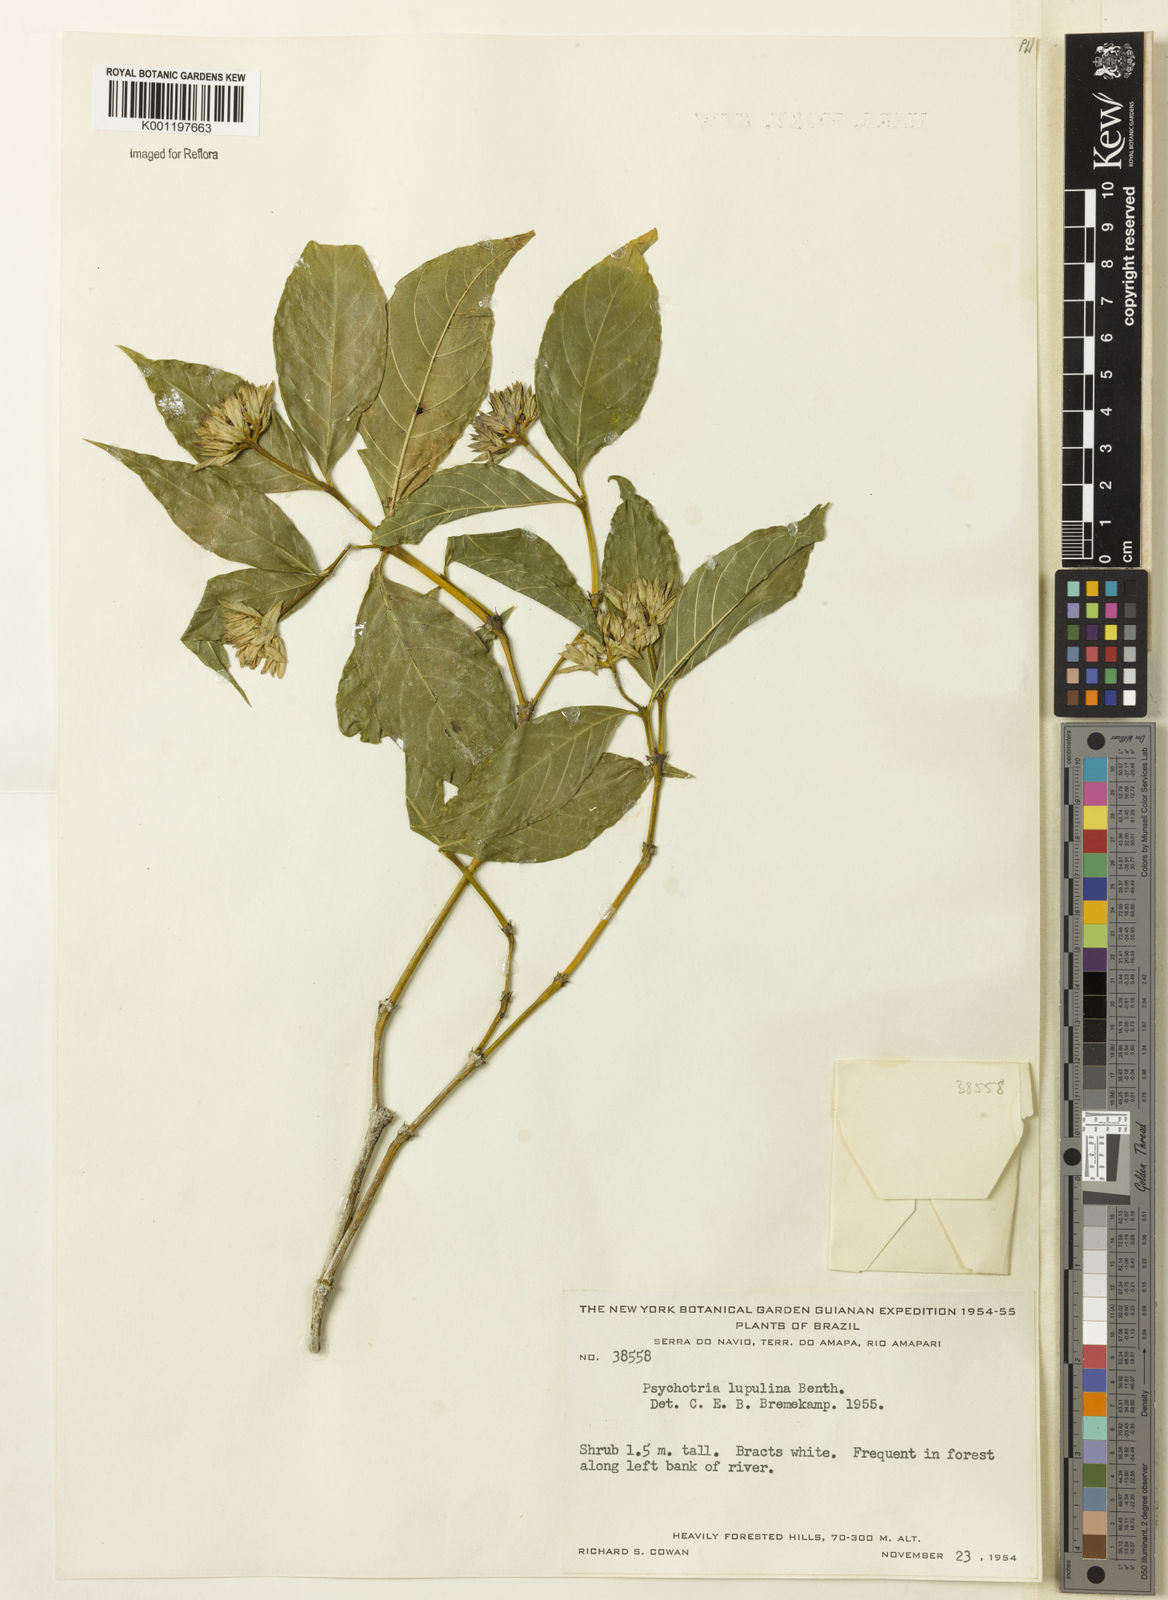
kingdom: Plantae
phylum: Tracheophyta
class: Magnoliopsida
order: Gentianales
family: Rubiaceae
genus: Palicourea
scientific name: Palicourea justiciifolia
